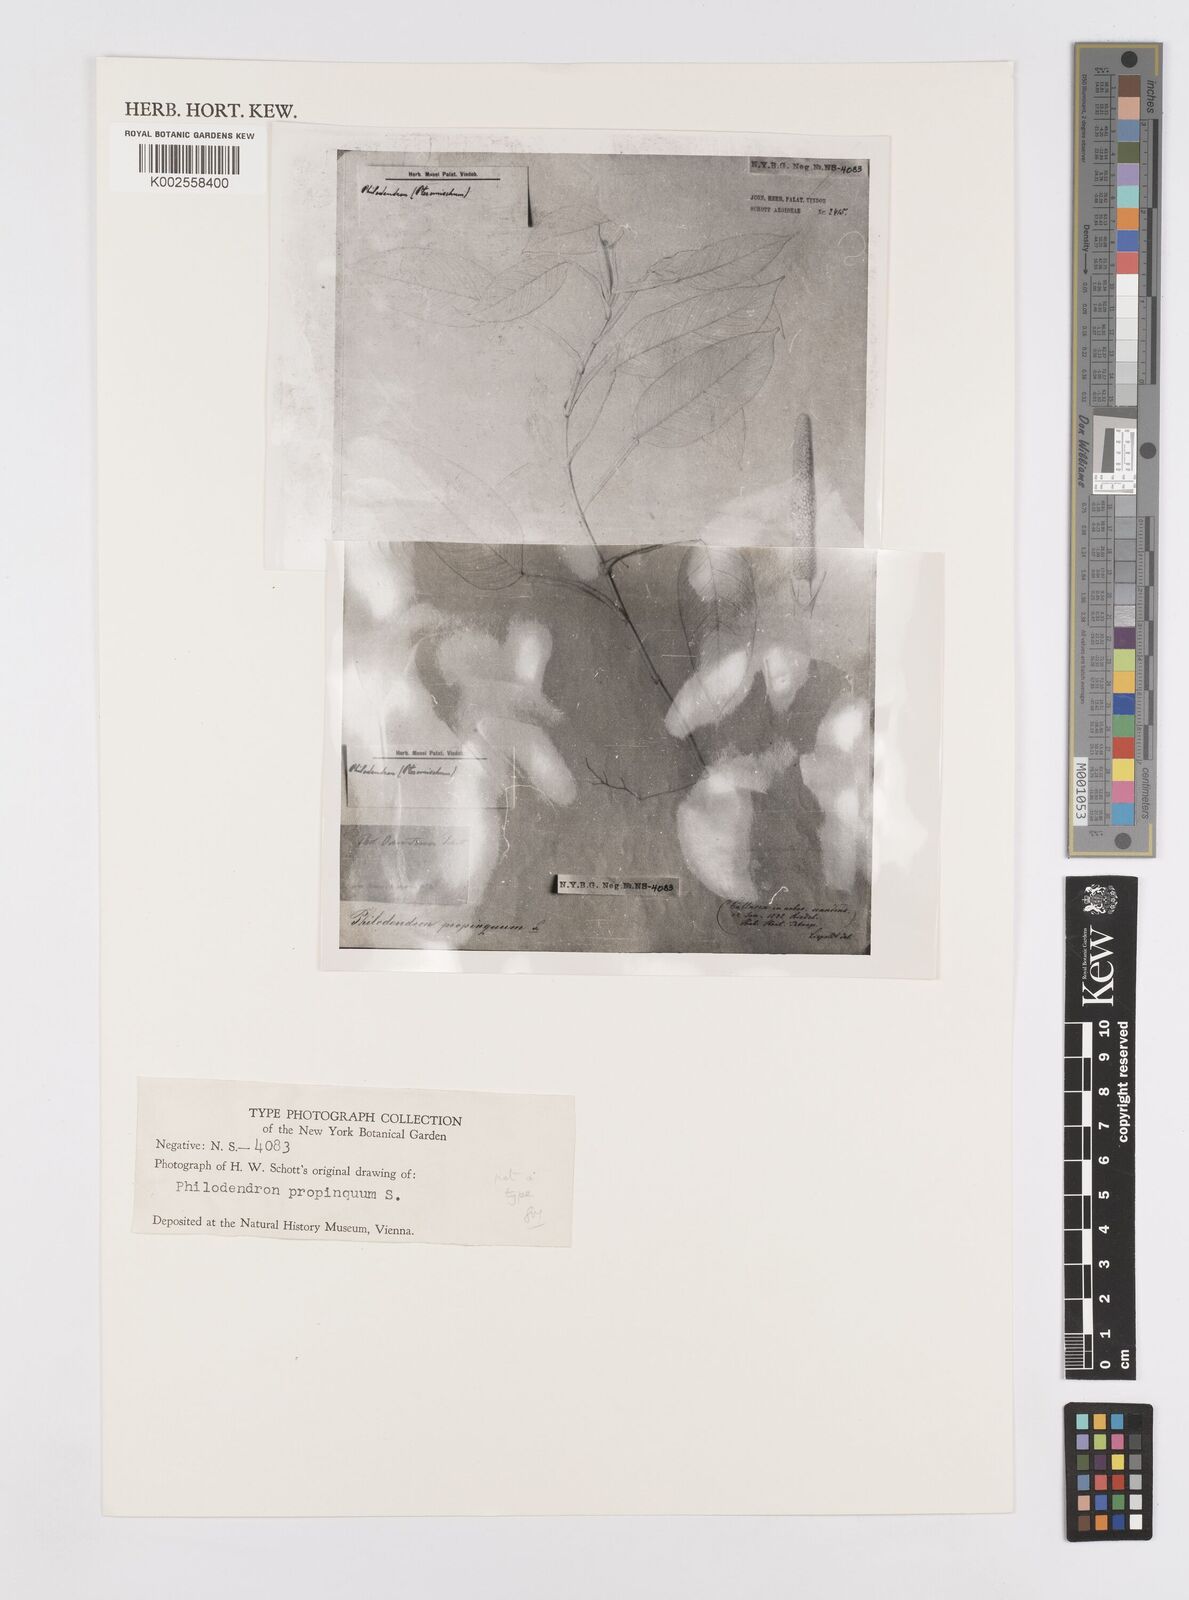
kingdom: Plantae
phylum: Tracheophyta
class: Liliopsida
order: Alismatales
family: Araceae
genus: Philodendron
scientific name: Philodendron propinquum
